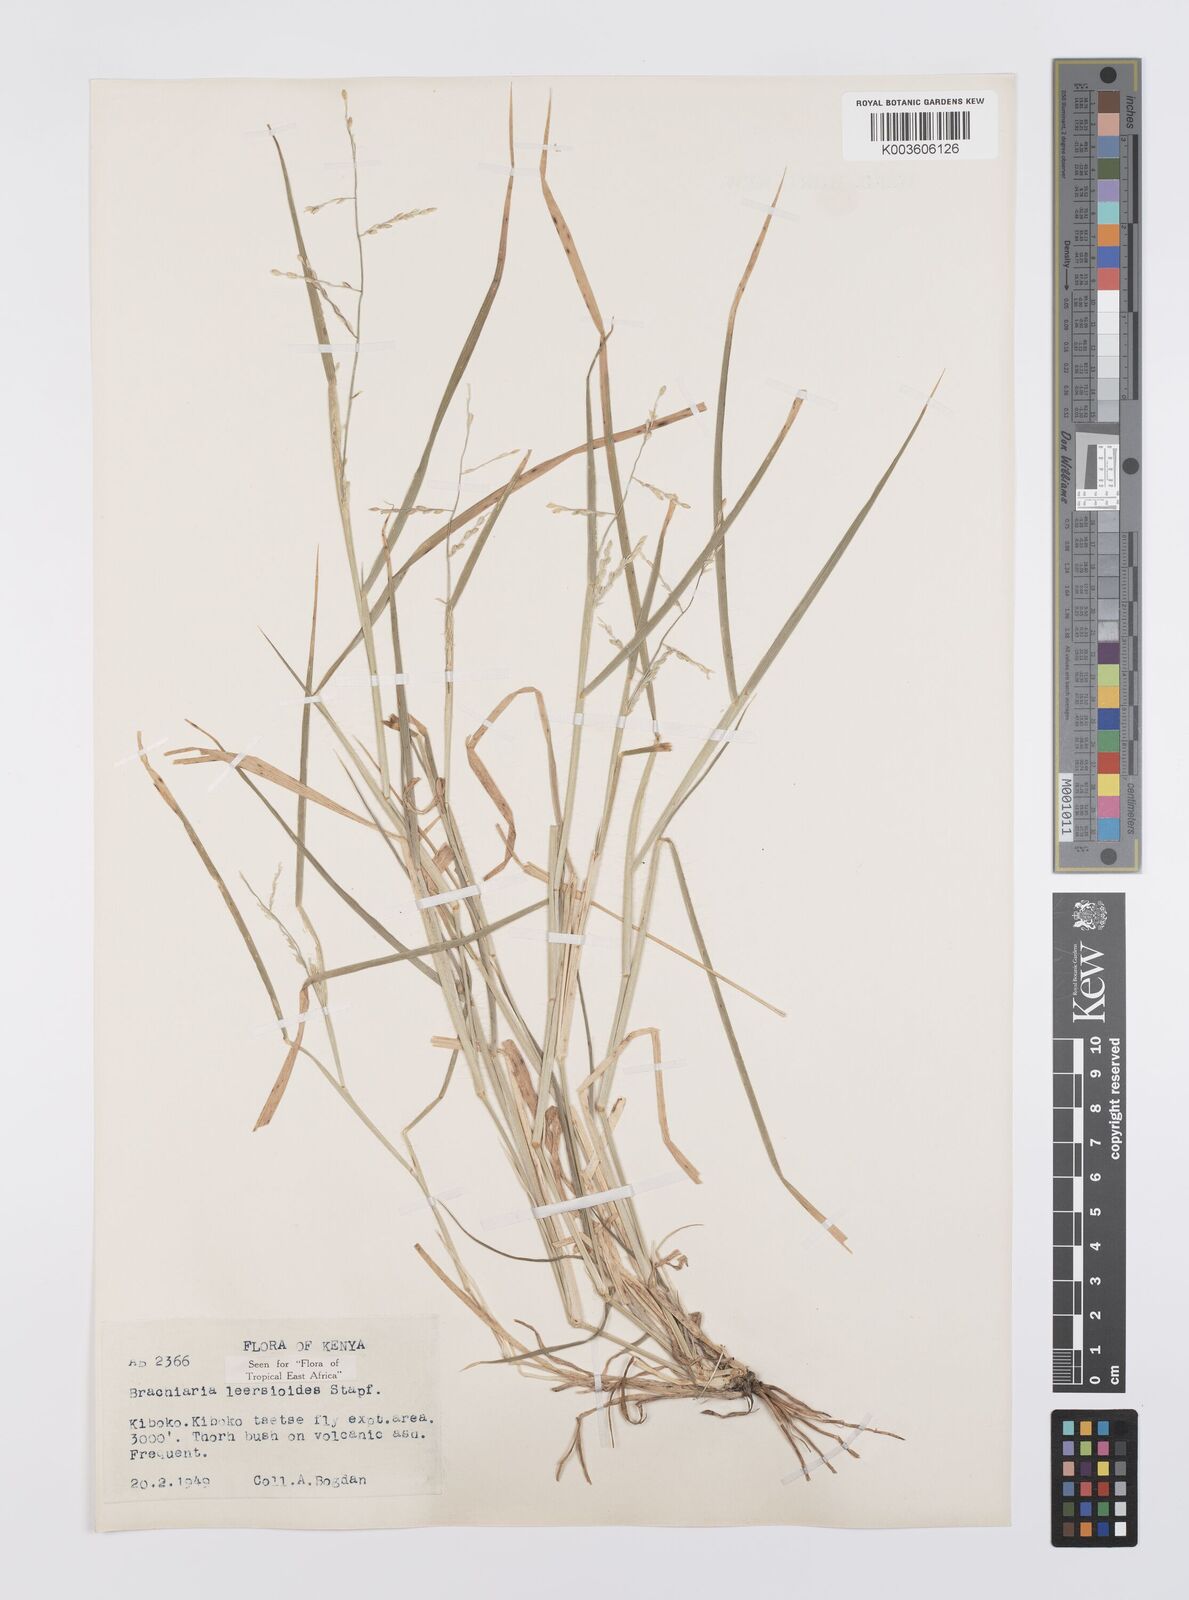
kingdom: Plantae
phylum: Tracheophyta
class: Liliopsida
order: Poales
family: Poaceae
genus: Urochloa
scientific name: Urochloa leersioides
